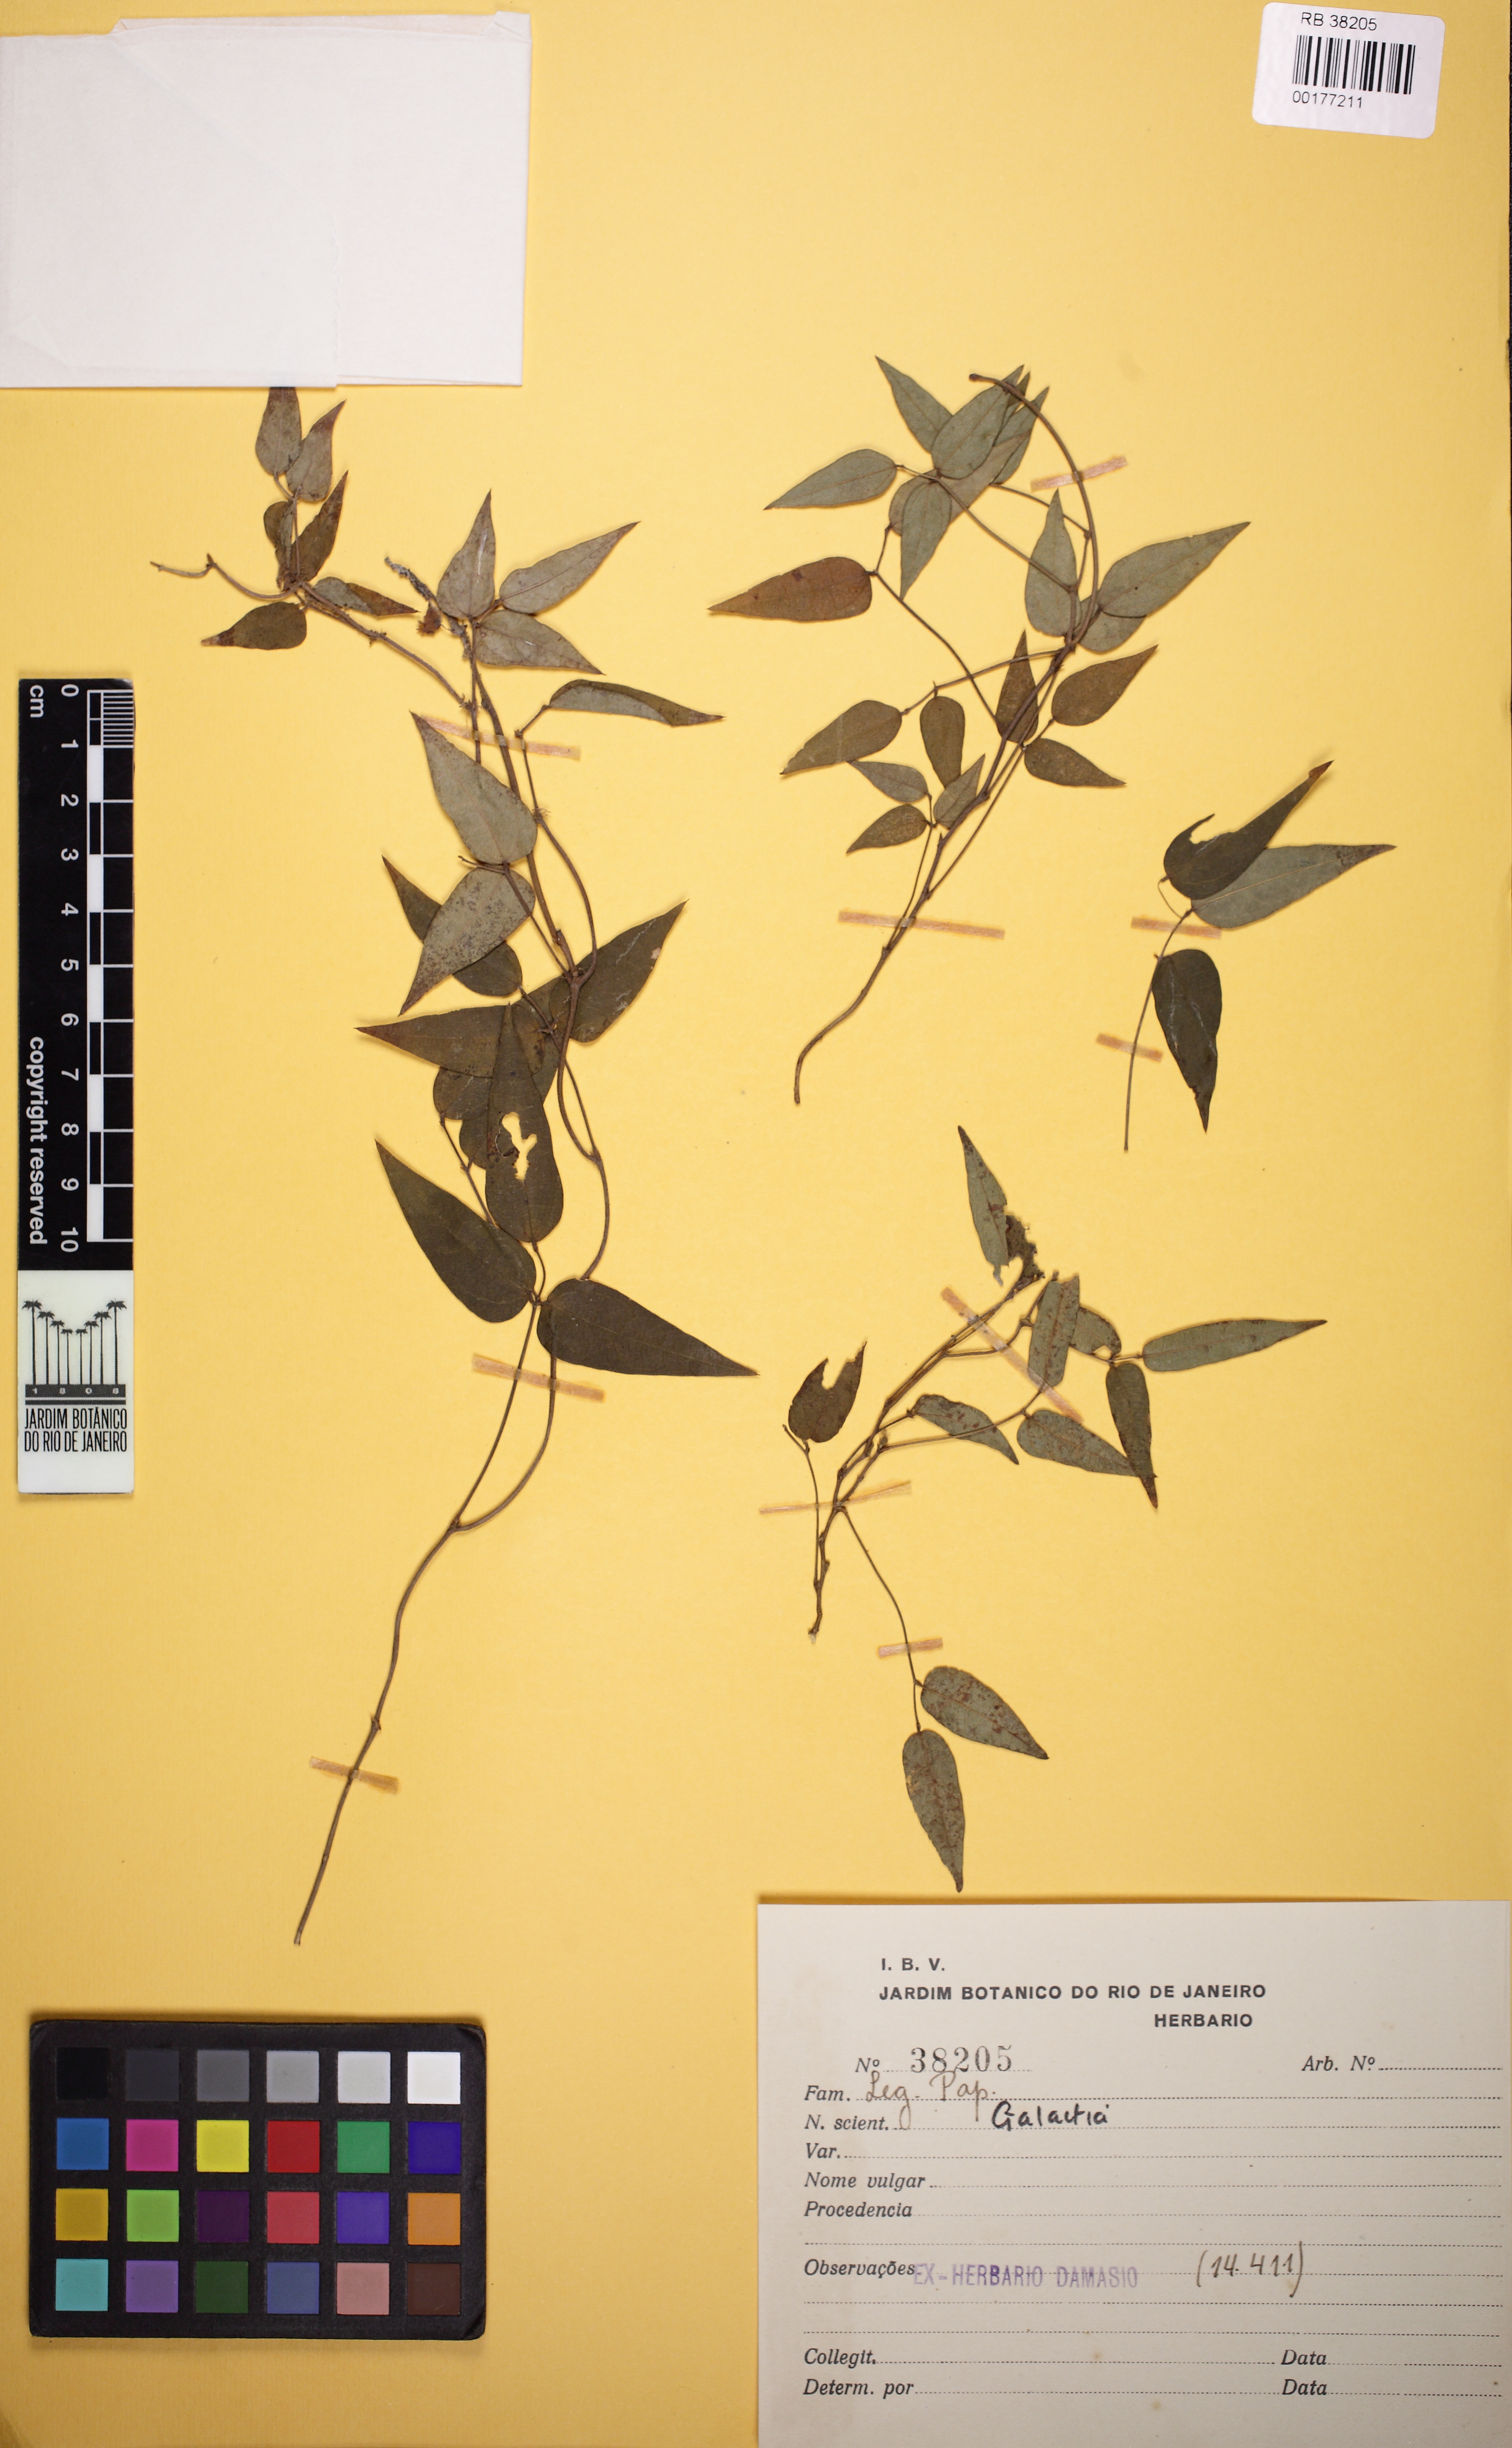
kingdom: Plantae
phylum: Tracheophyta
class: Magnoliopsida
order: Fabales
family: Fabaceae
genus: Galactia
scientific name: Galactia
